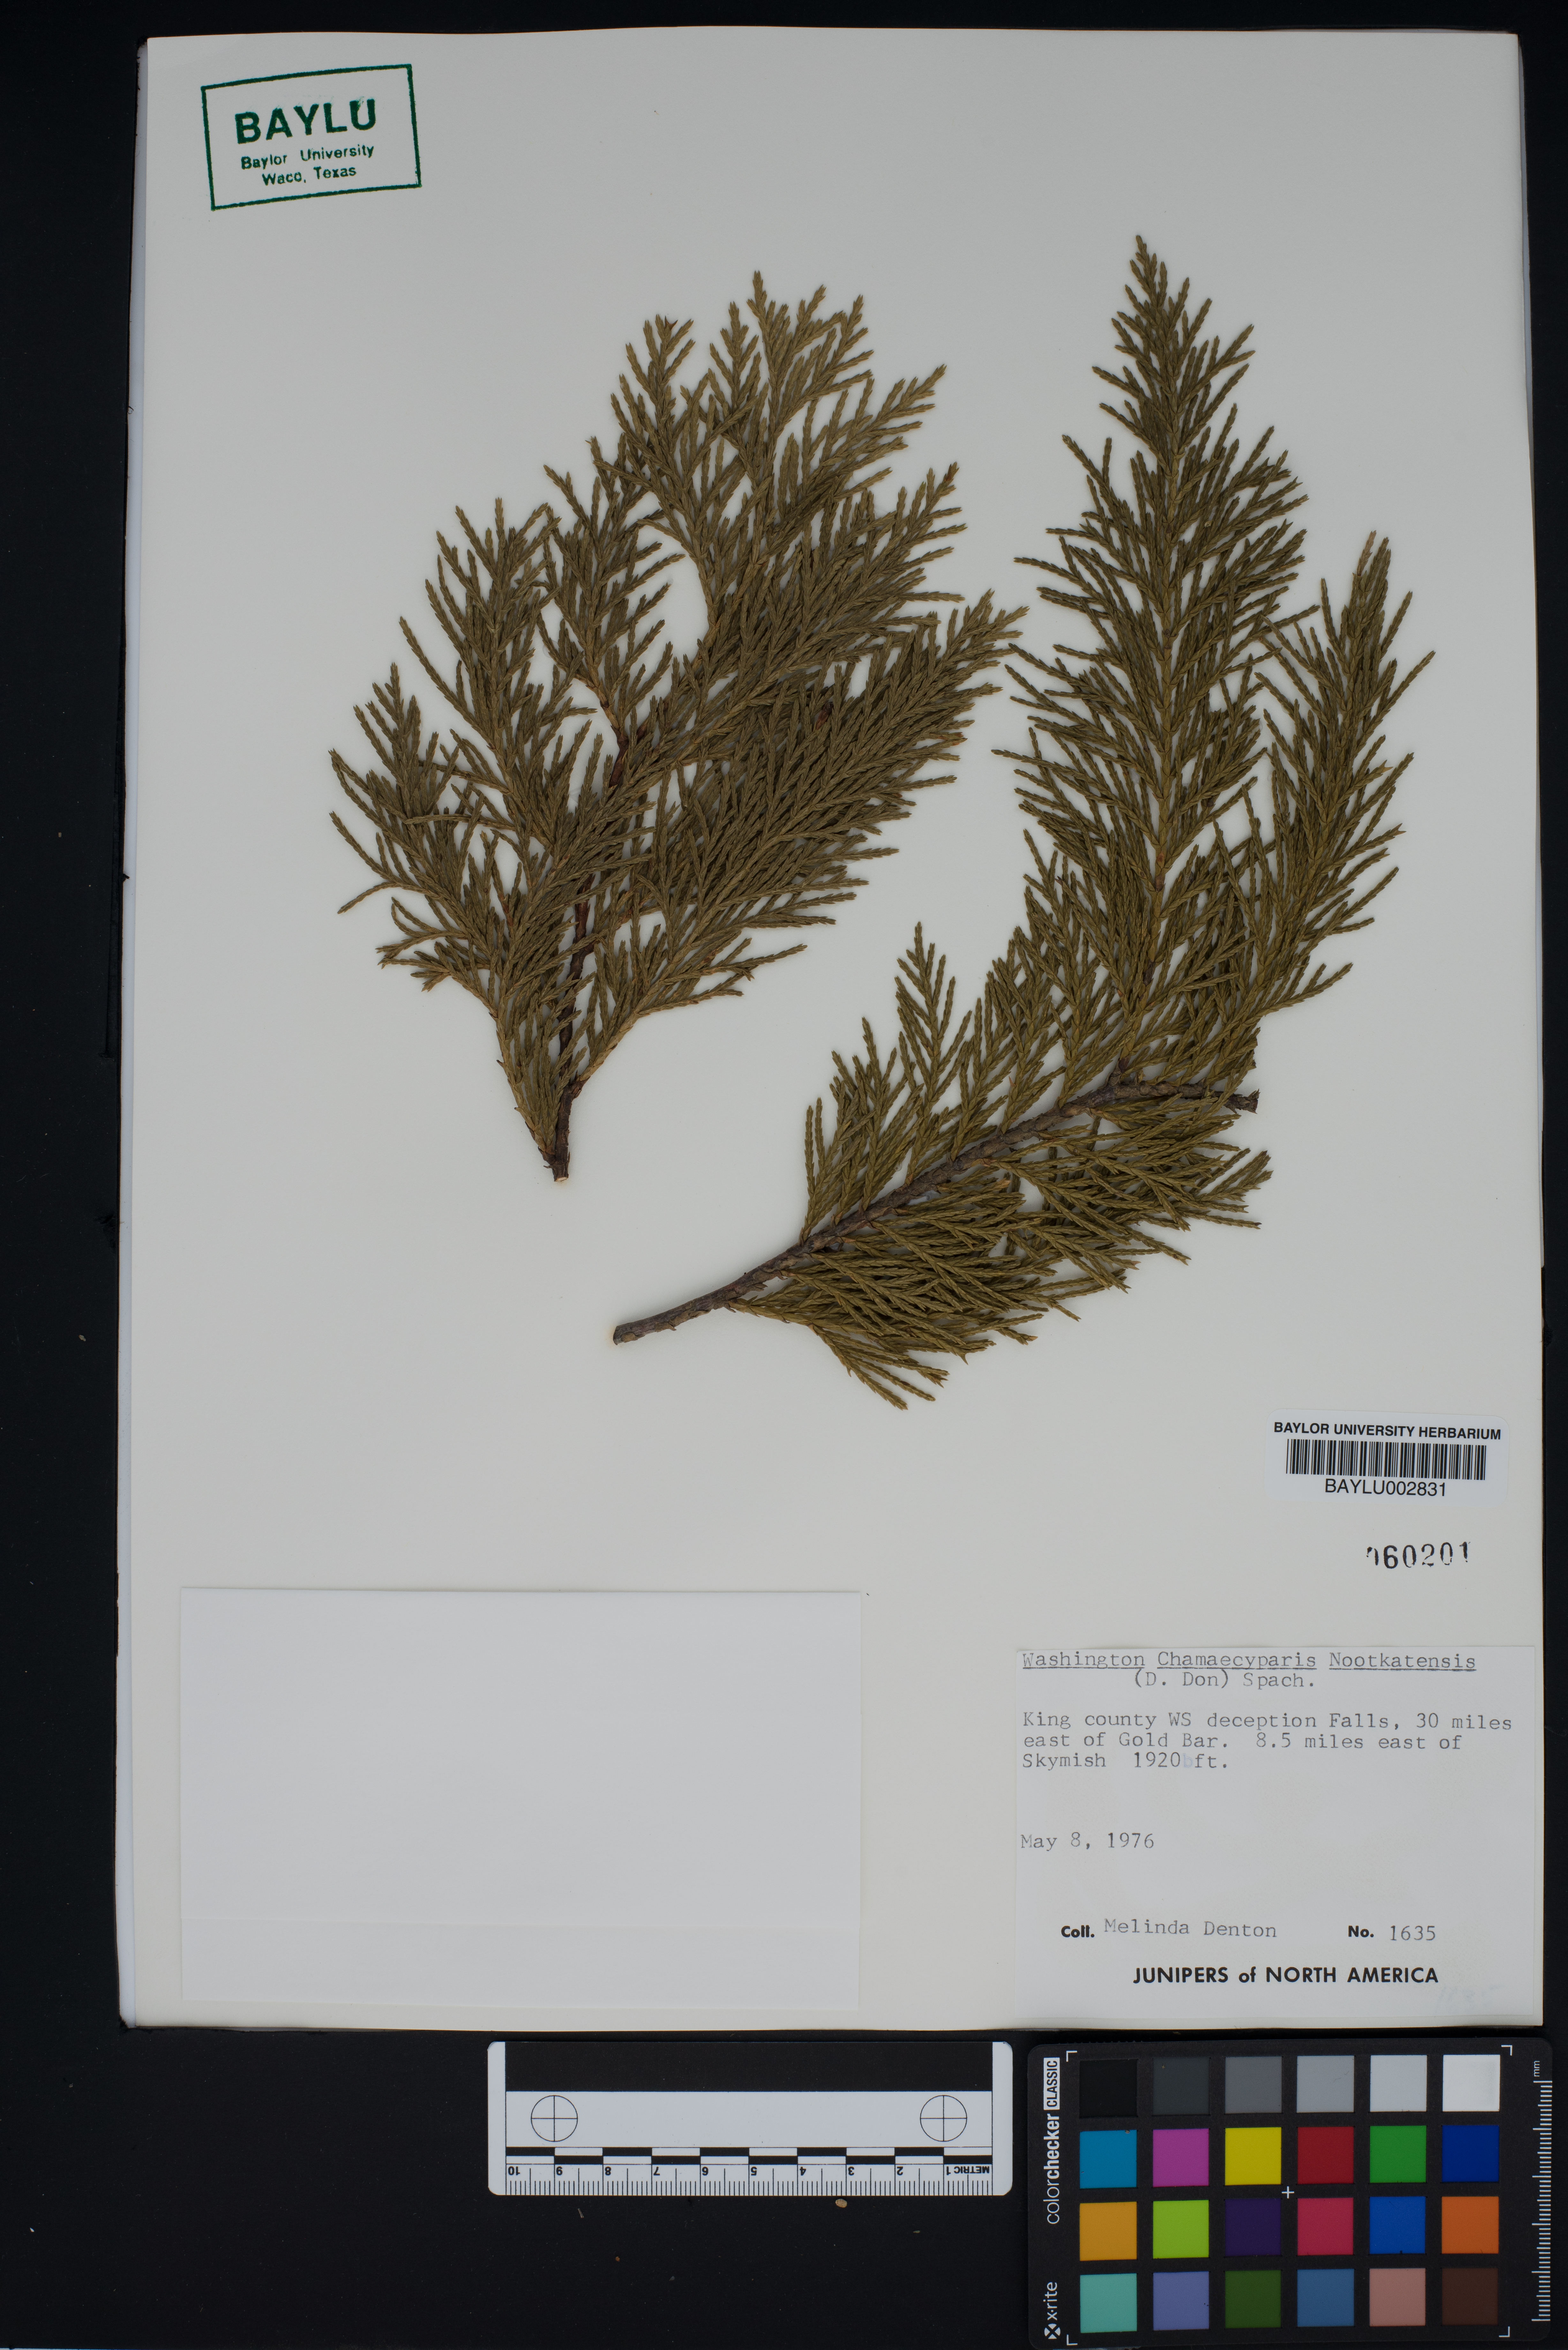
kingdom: Plantae
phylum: Tracheophyta
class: Pinopsida
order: Pinales
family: Cupressaceae
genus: Xanthocyparis
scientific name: Xanthocyparis nootkatensis
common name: Nootka cypress
